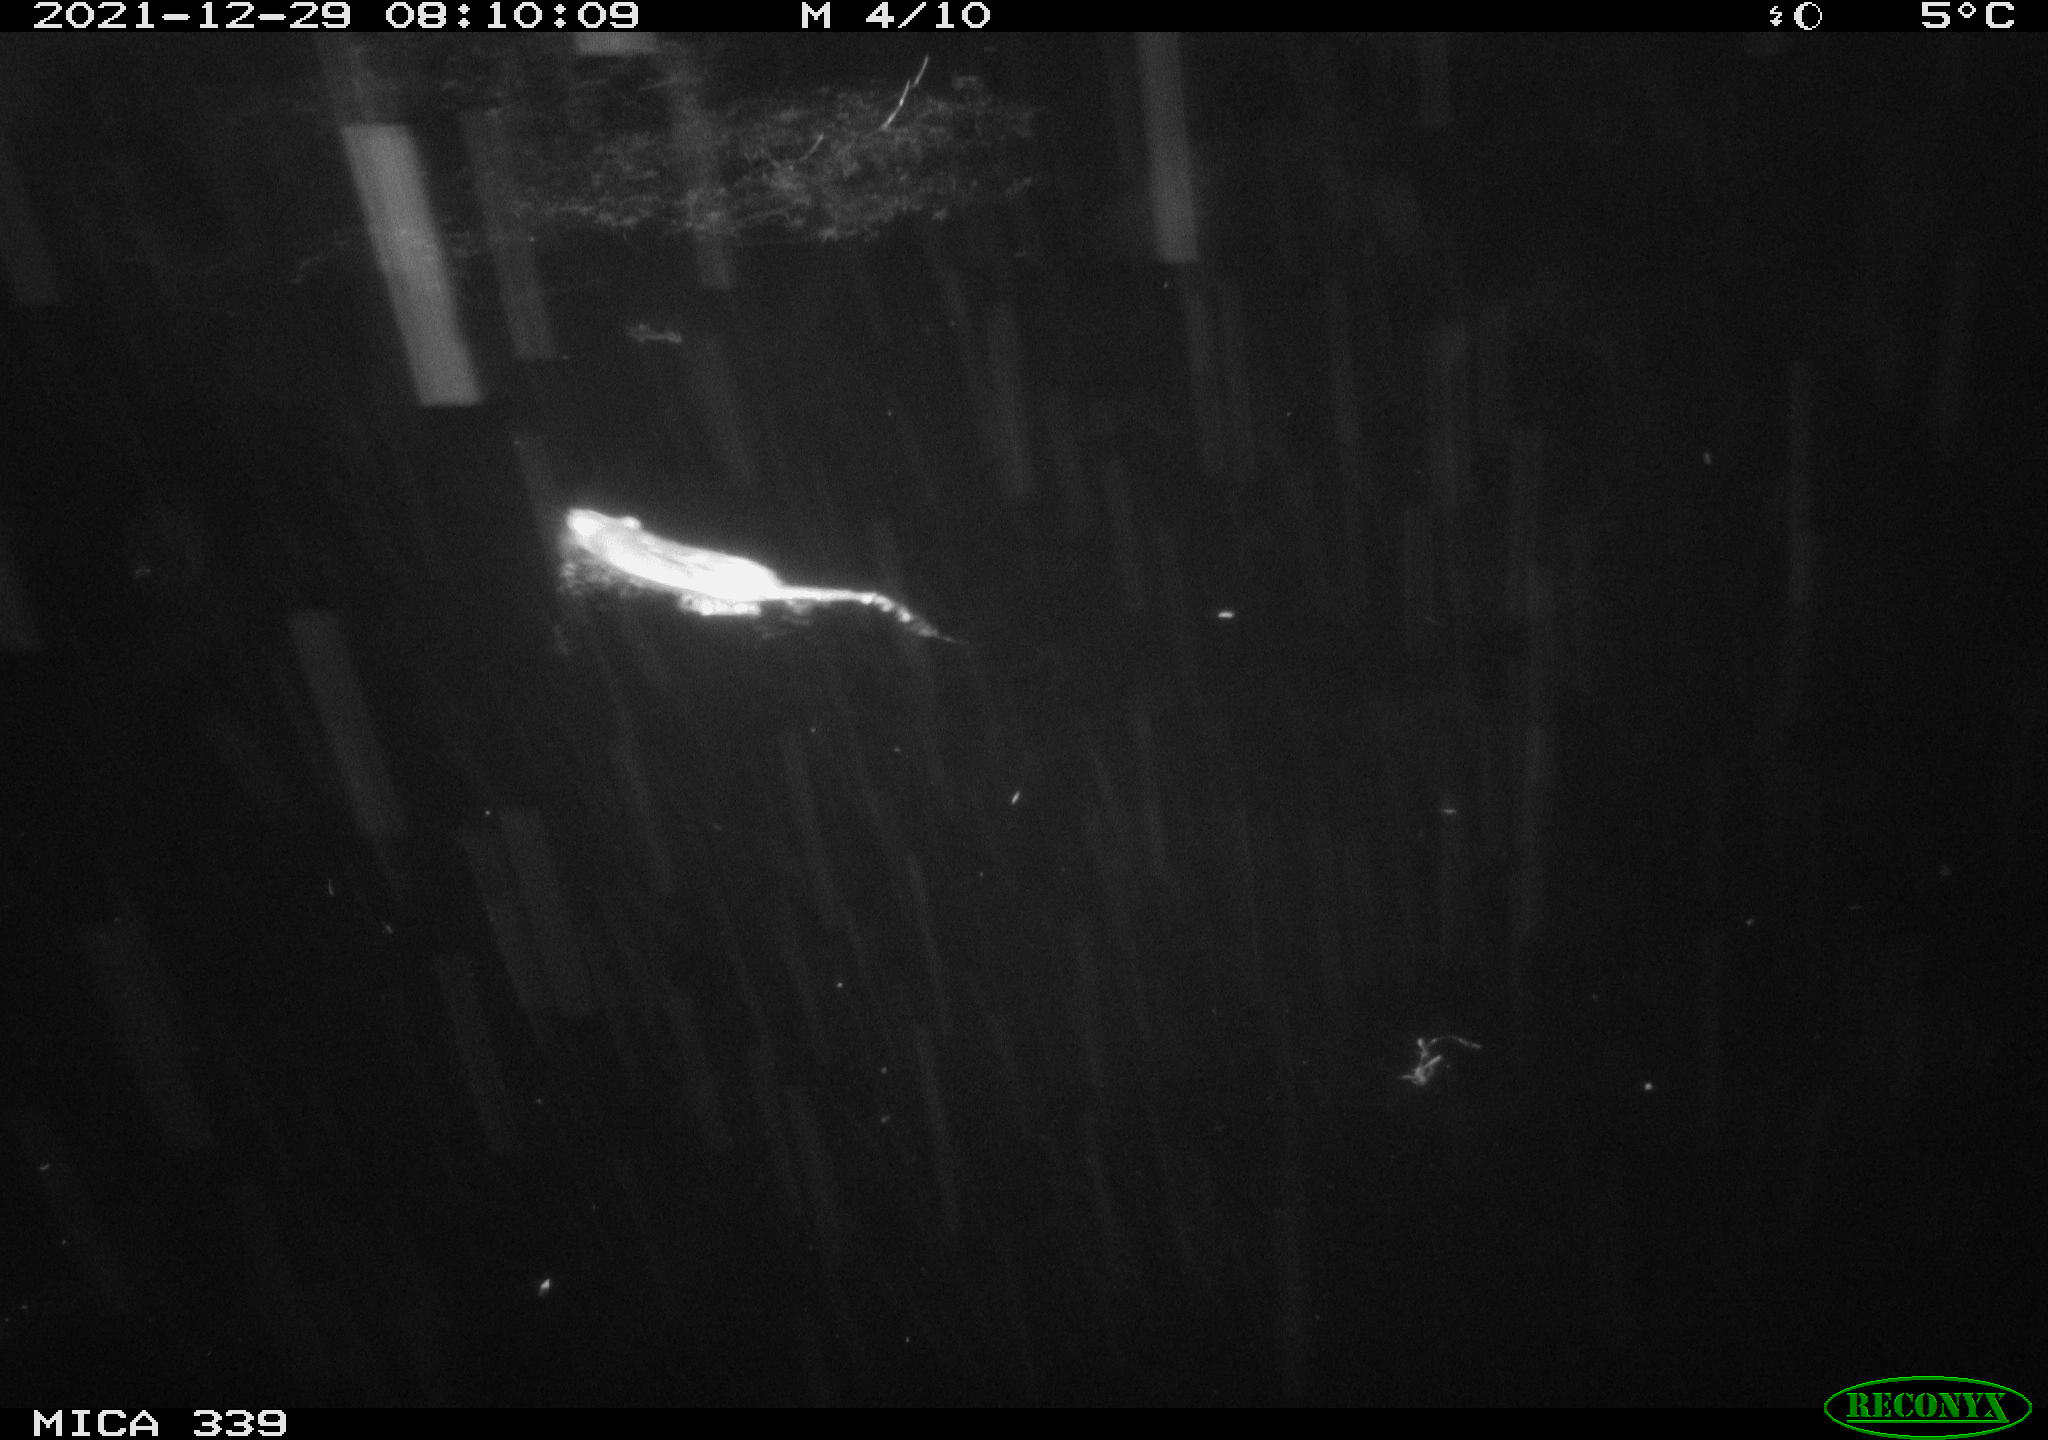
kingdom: Animalia
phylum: Chordata
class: Mammalia
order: Rodentia
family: Muridae
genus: Rattus
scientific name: Rattus norvegicus
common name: Brown rat
